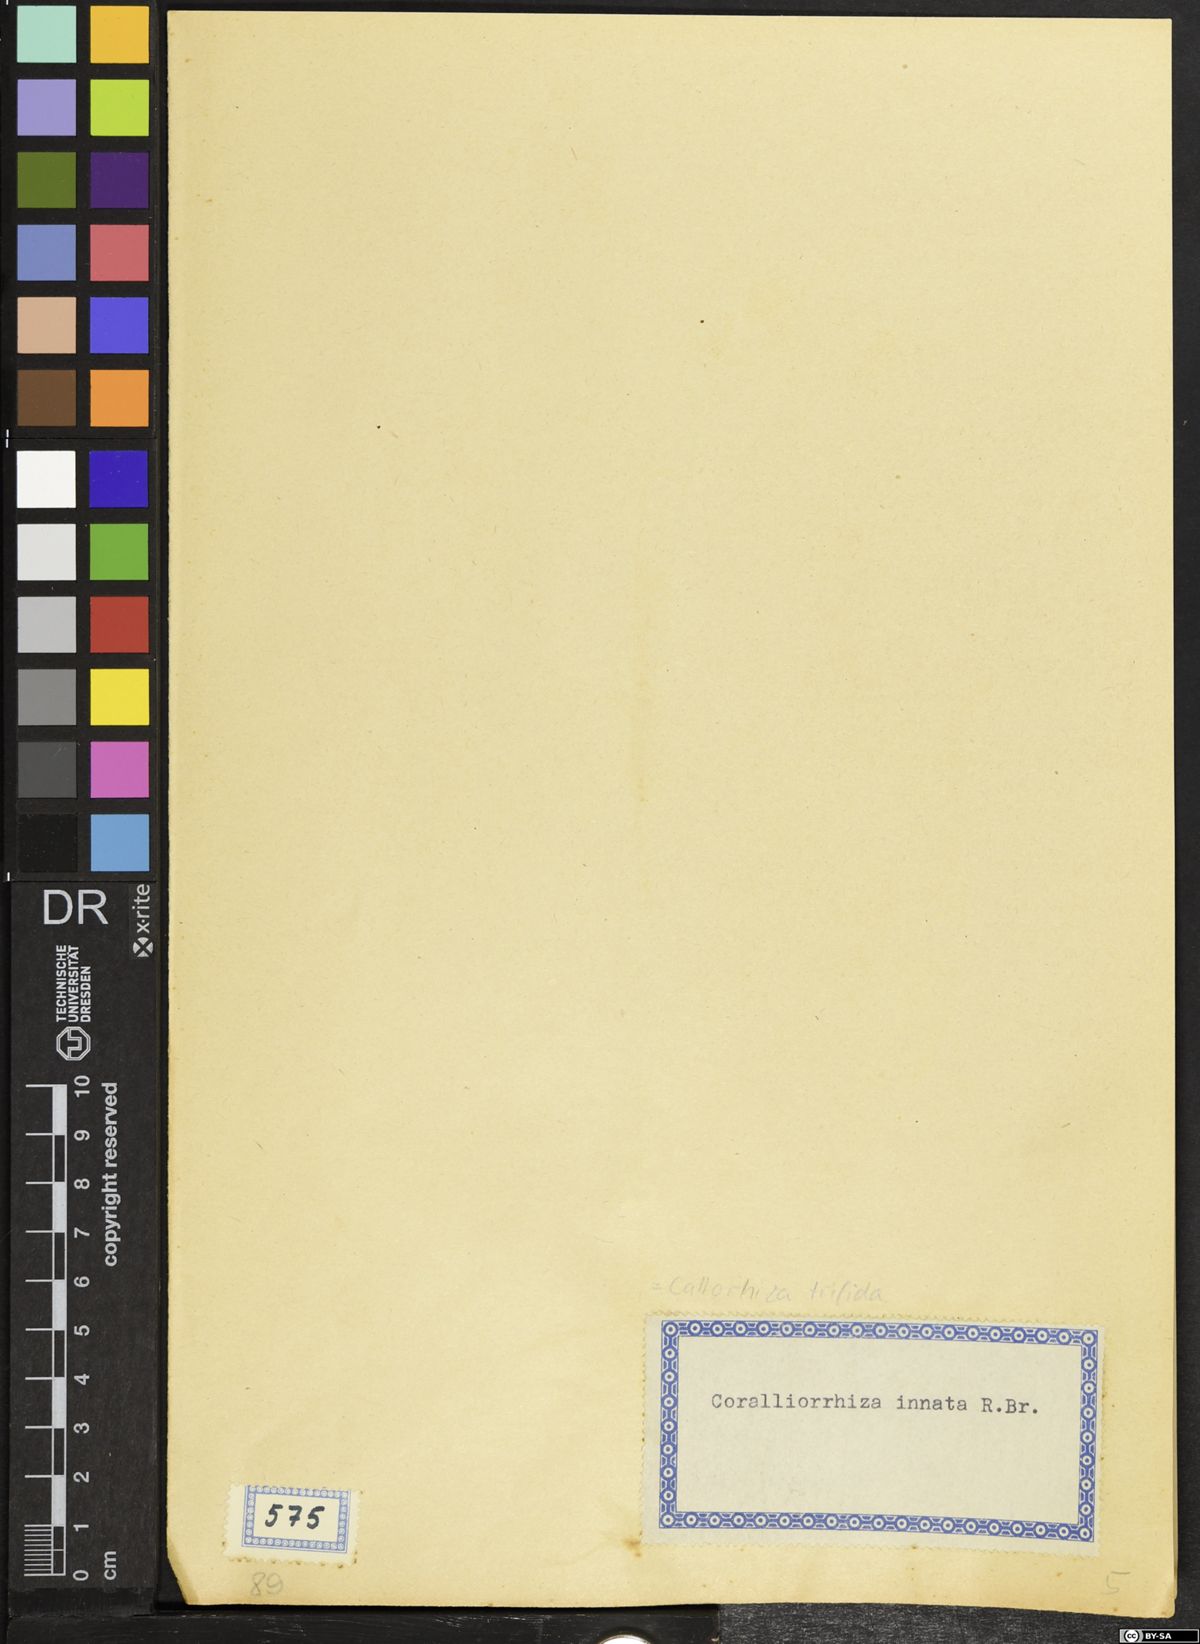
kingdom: Plantae
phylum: Tracheophyta
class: Liliopsida
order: Asparagales
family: Orchidaceae
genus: Corallorhiza
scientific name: Corallorhiza trifida
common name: Yellow coralroot
